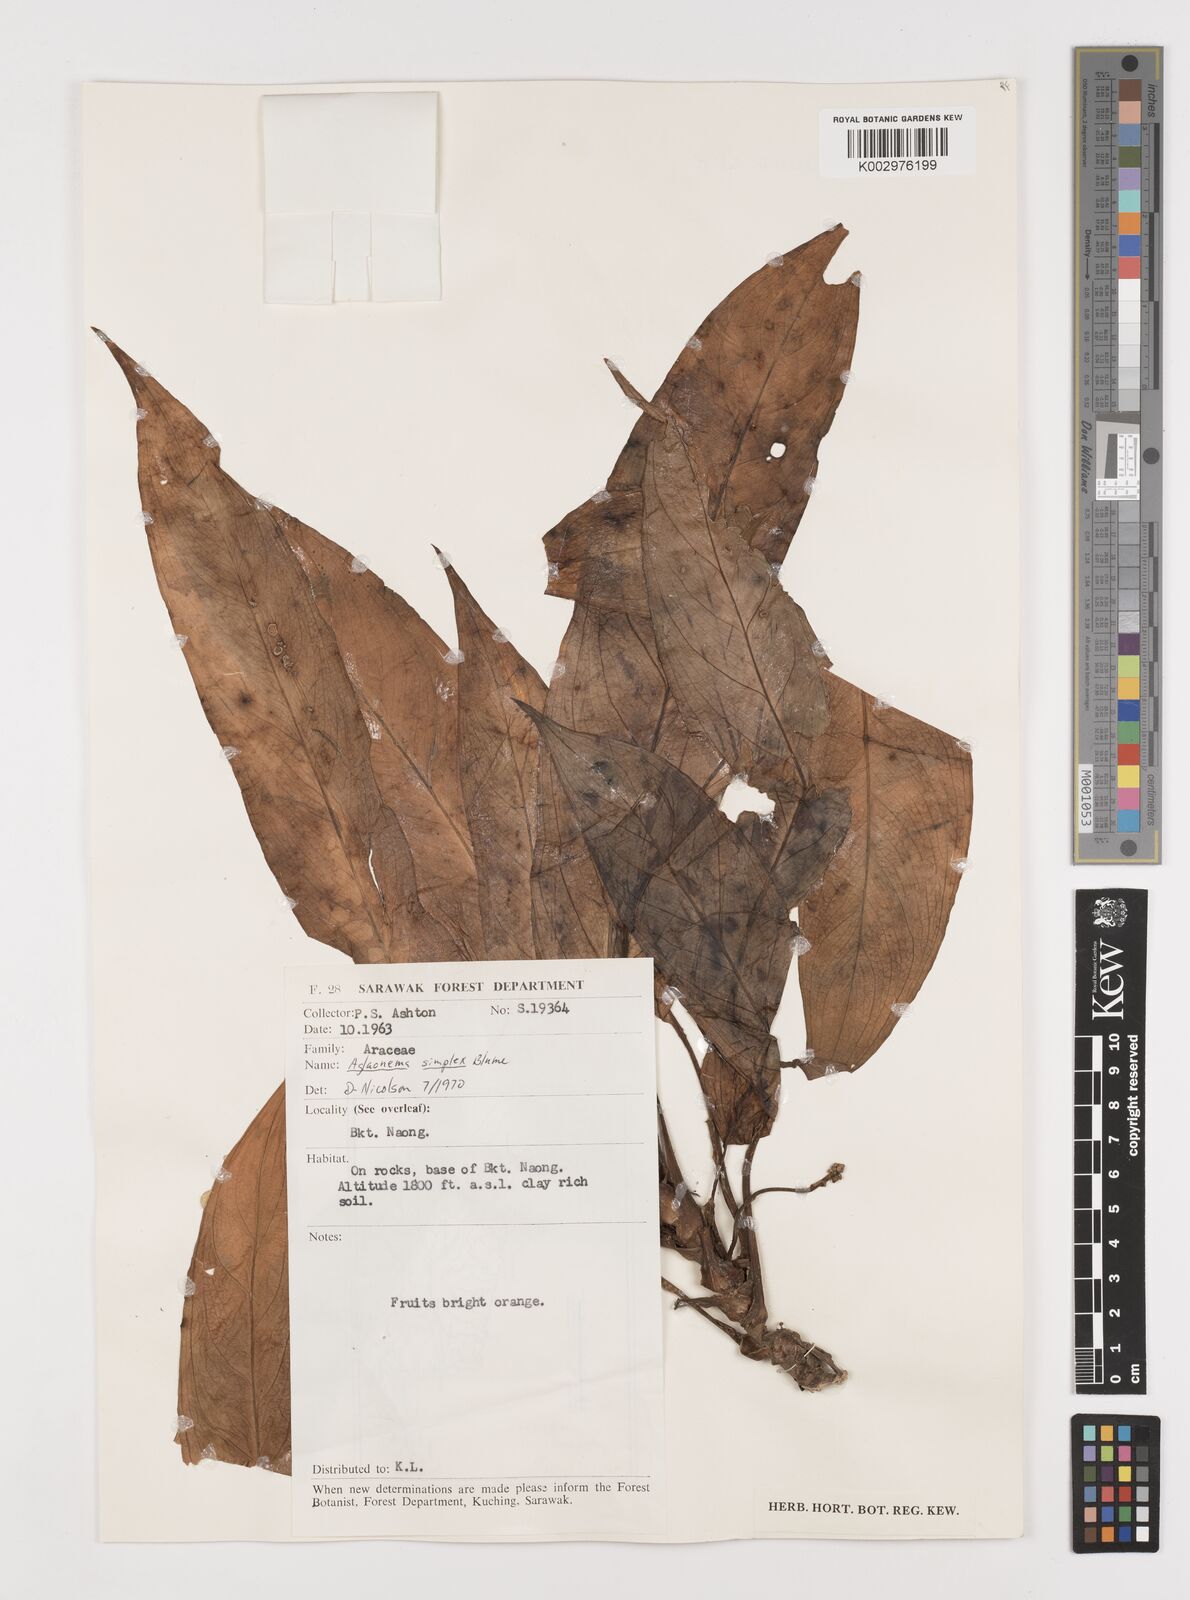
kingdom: Plantae
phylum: Tracheophyta
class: Liliopsida
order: Alismatales
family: Araceae
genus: Aglaonema
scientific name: Aglaonema simplex
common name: Malayan-sword
